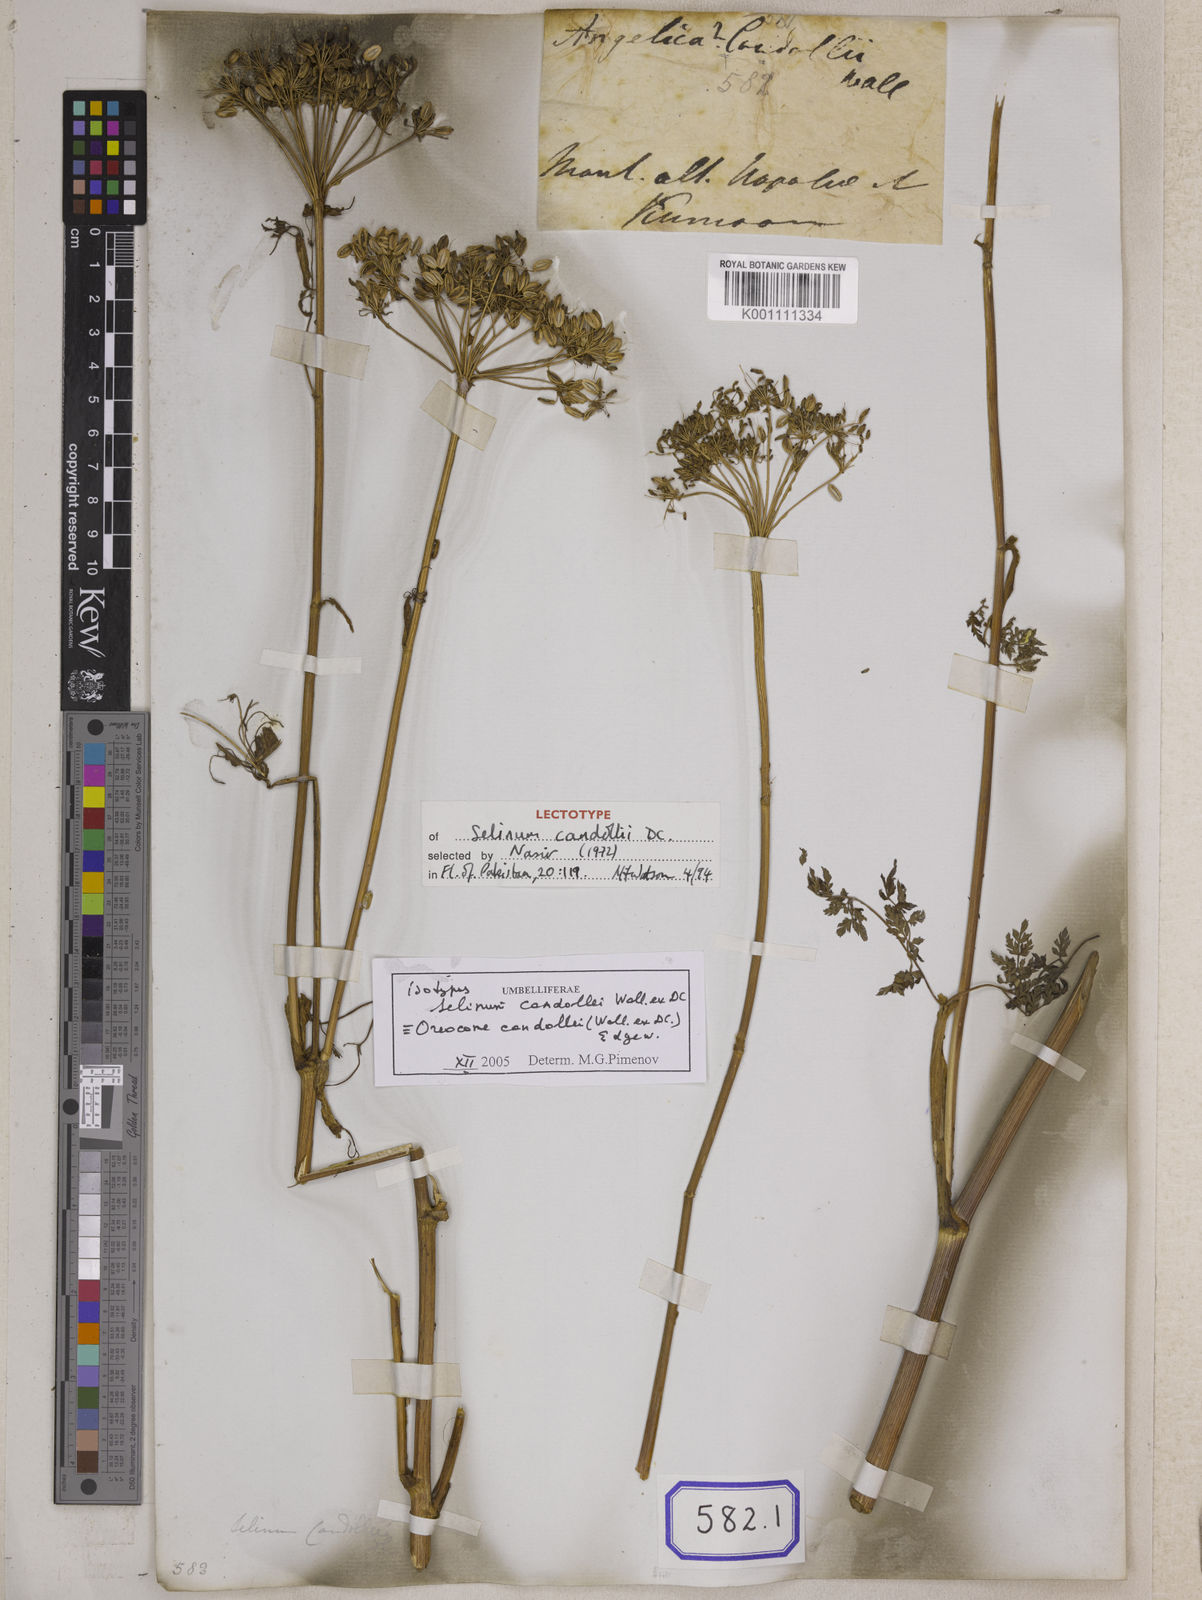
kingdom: Plantae
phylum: Tracheophyta
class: Magnoliopsida
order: Apiales
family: Apiaceae
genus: Oreocome
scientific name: Oreocome candollei
